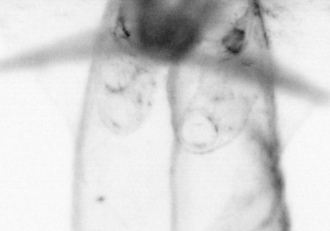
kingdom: Animalia
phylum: Chaetognatha
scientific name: Chaetognatha
